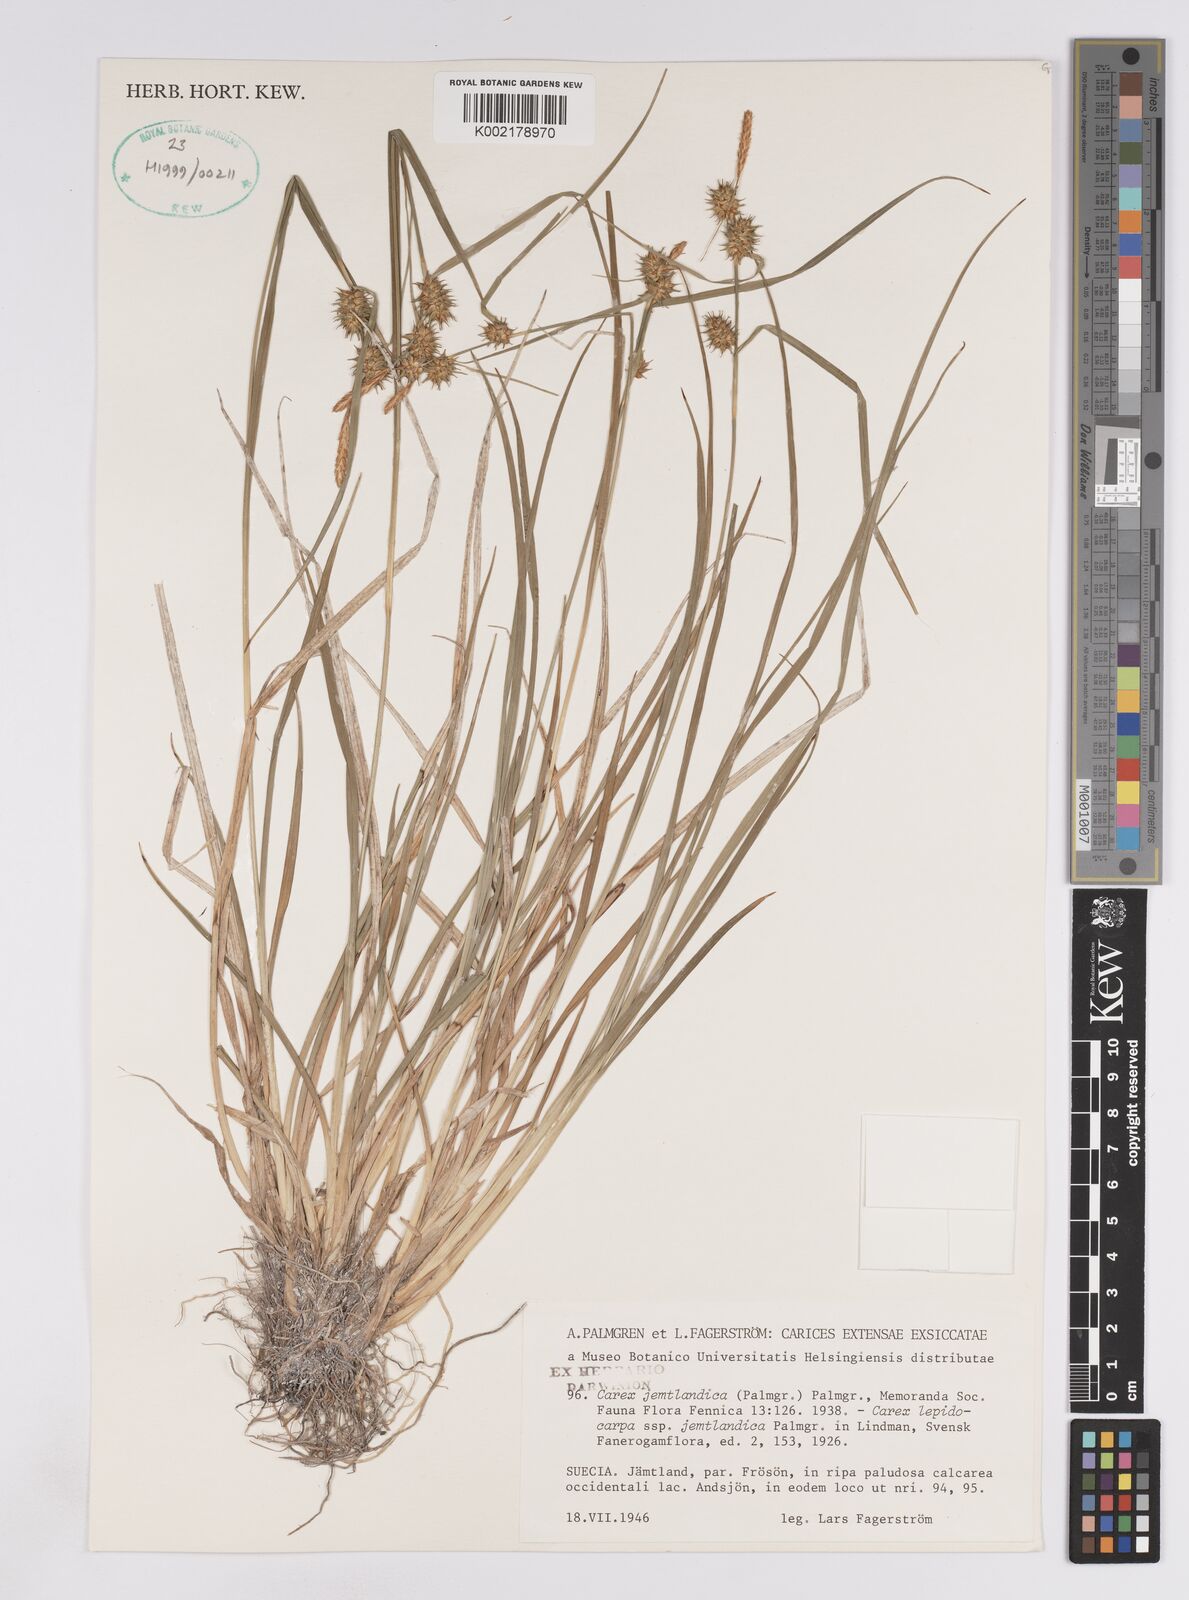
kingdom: Plantae
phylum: Tracheophyta
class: Liliopsida
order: Poales
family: Cyperaceae
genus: Carex
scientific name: Carex lepidocarpa
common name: Long-stalked yellow-sedge
